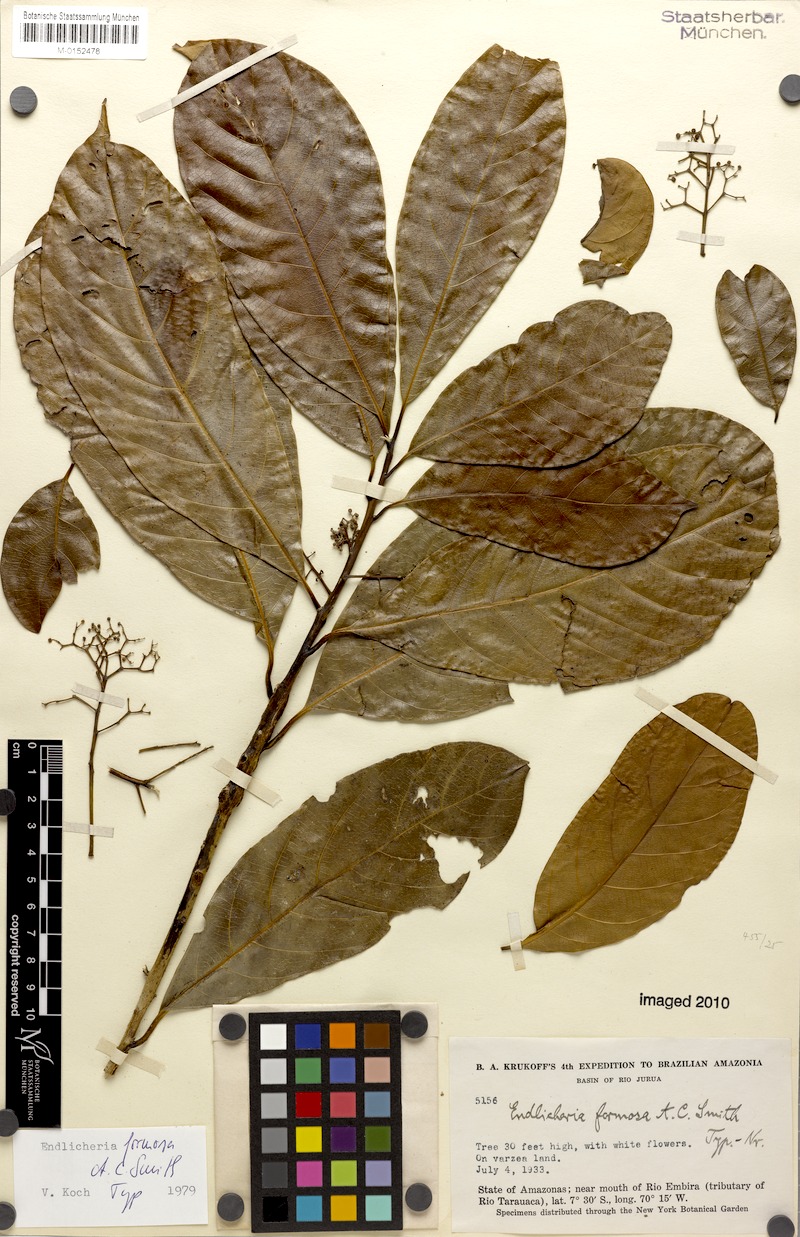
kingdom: Plantae
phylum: Tracheophyta
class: Magnoliopsida
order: Laurales
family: Lauraceae
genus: Endlicheria
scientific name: Endlicheria formosa
